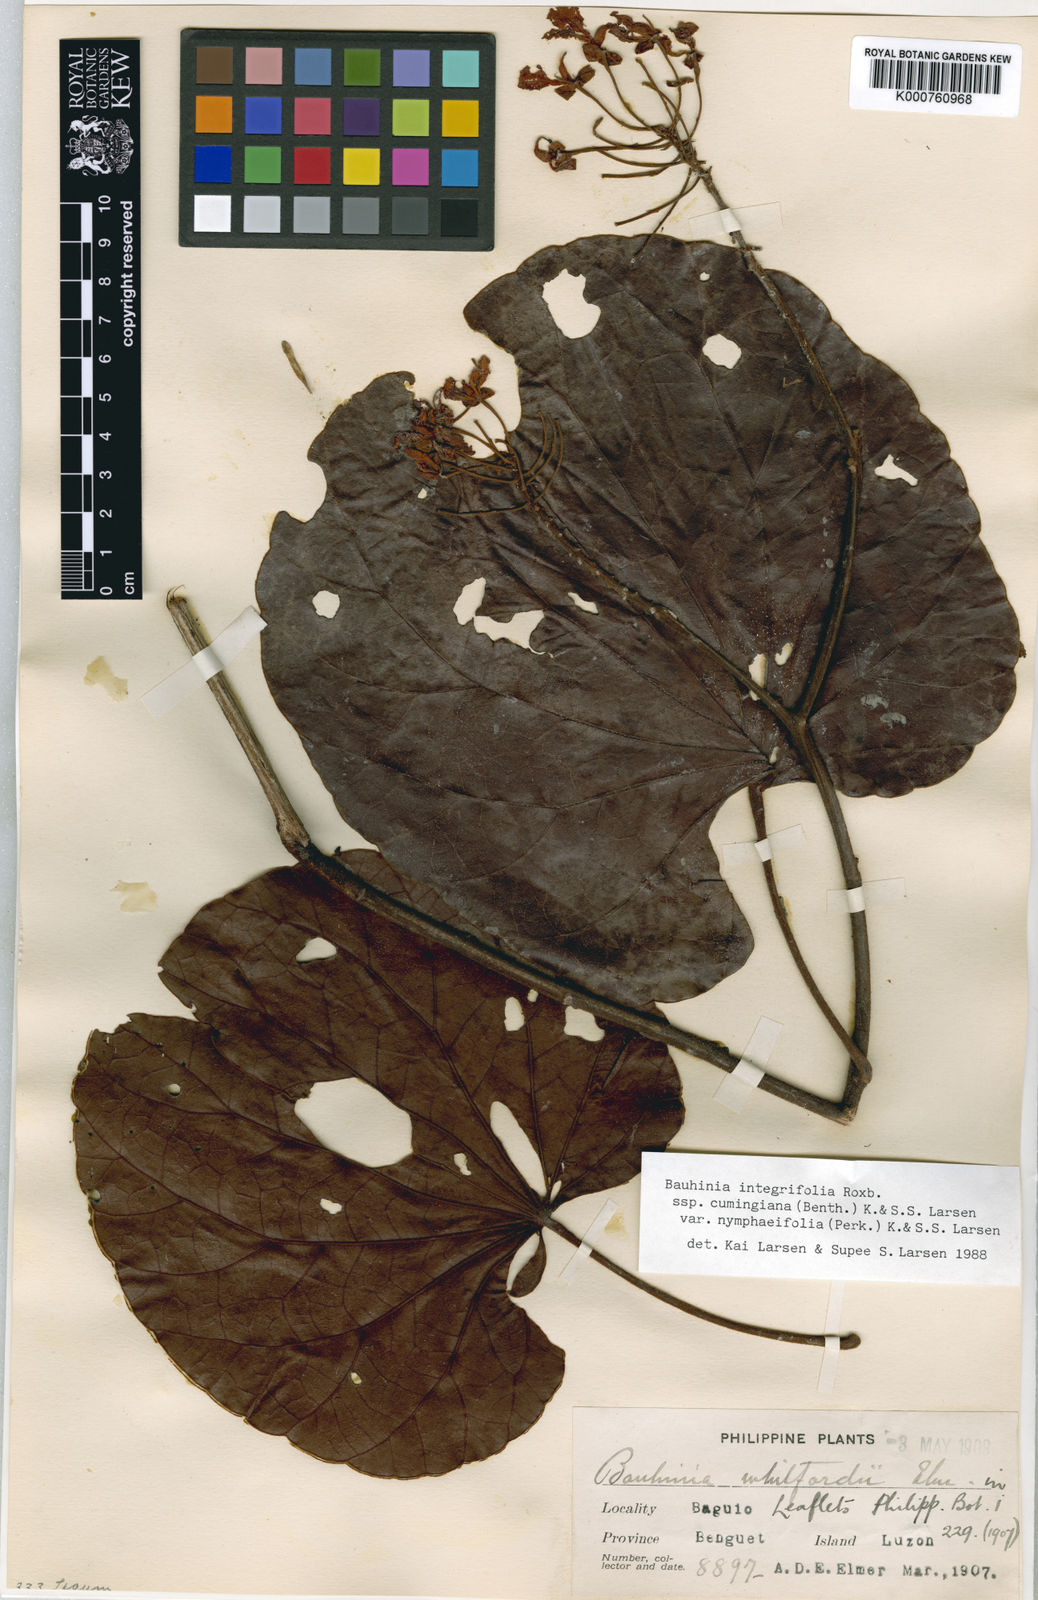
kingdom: Plantae
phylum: Tracheophyta
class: Magnoliopsida
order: Fabales
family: Fabaceae
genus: Phanera
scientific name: Phanera integrifolia
